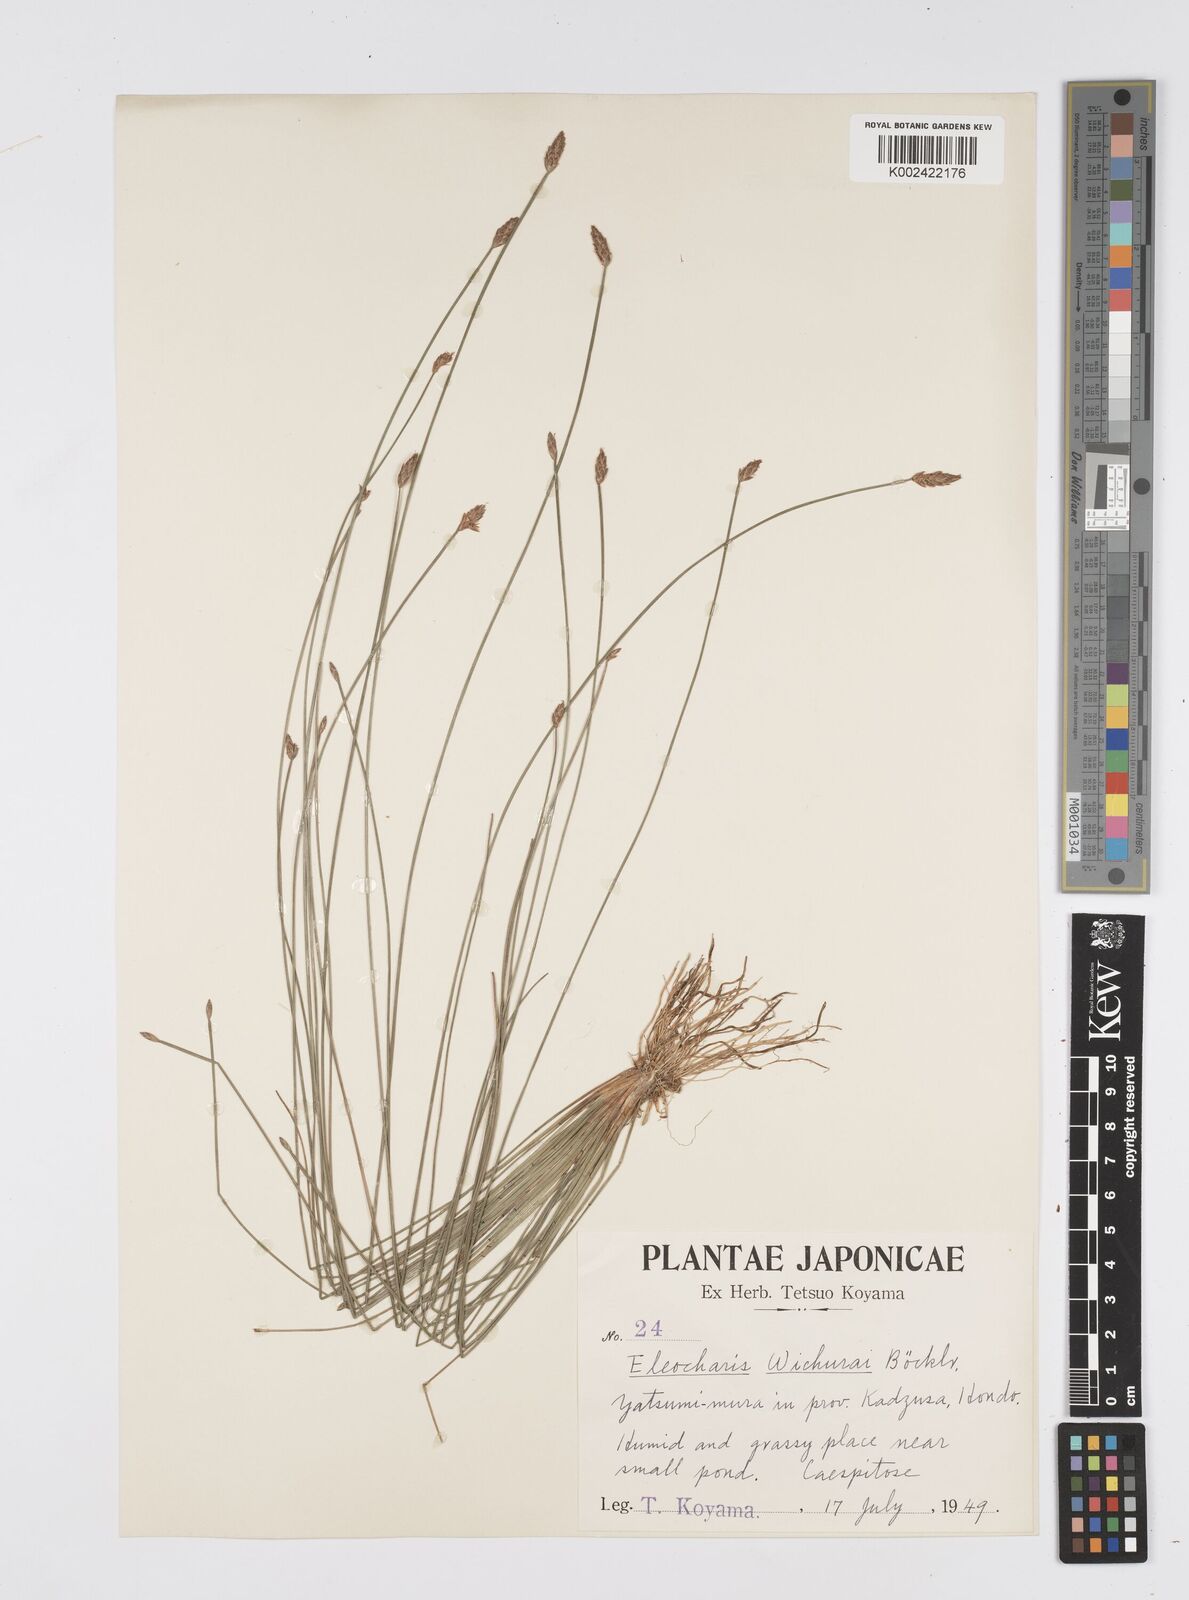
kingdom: Plantae
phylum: Tracheophyta
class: Liliopsida
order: Poales
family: Cyperaceae
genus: Eleocharis
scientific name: Eleocharis tetraquetra
